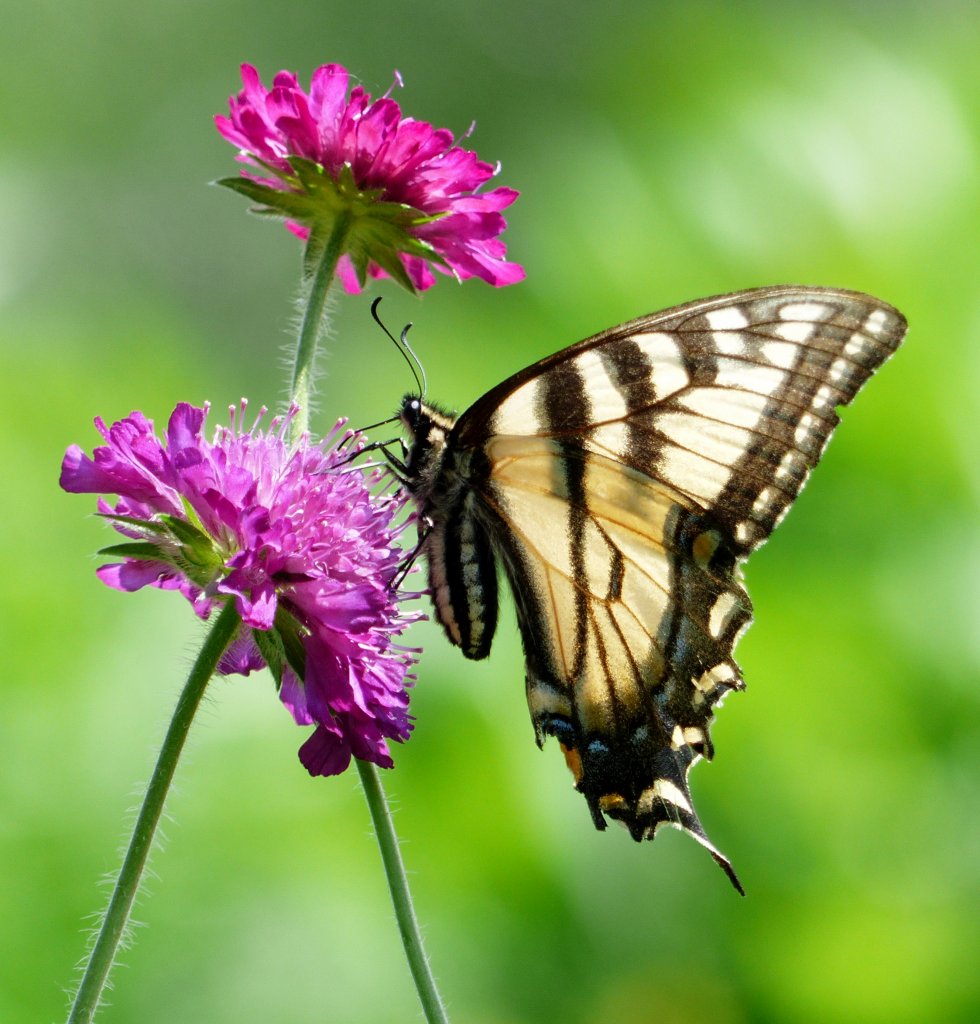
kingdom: Animalia
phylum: Arthropoda
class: Insecta
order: Lepidoptera
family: Papilionidae
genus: Pterourus
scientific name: Pterourus canadensis
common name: Canadian Tiger Swallowtail
